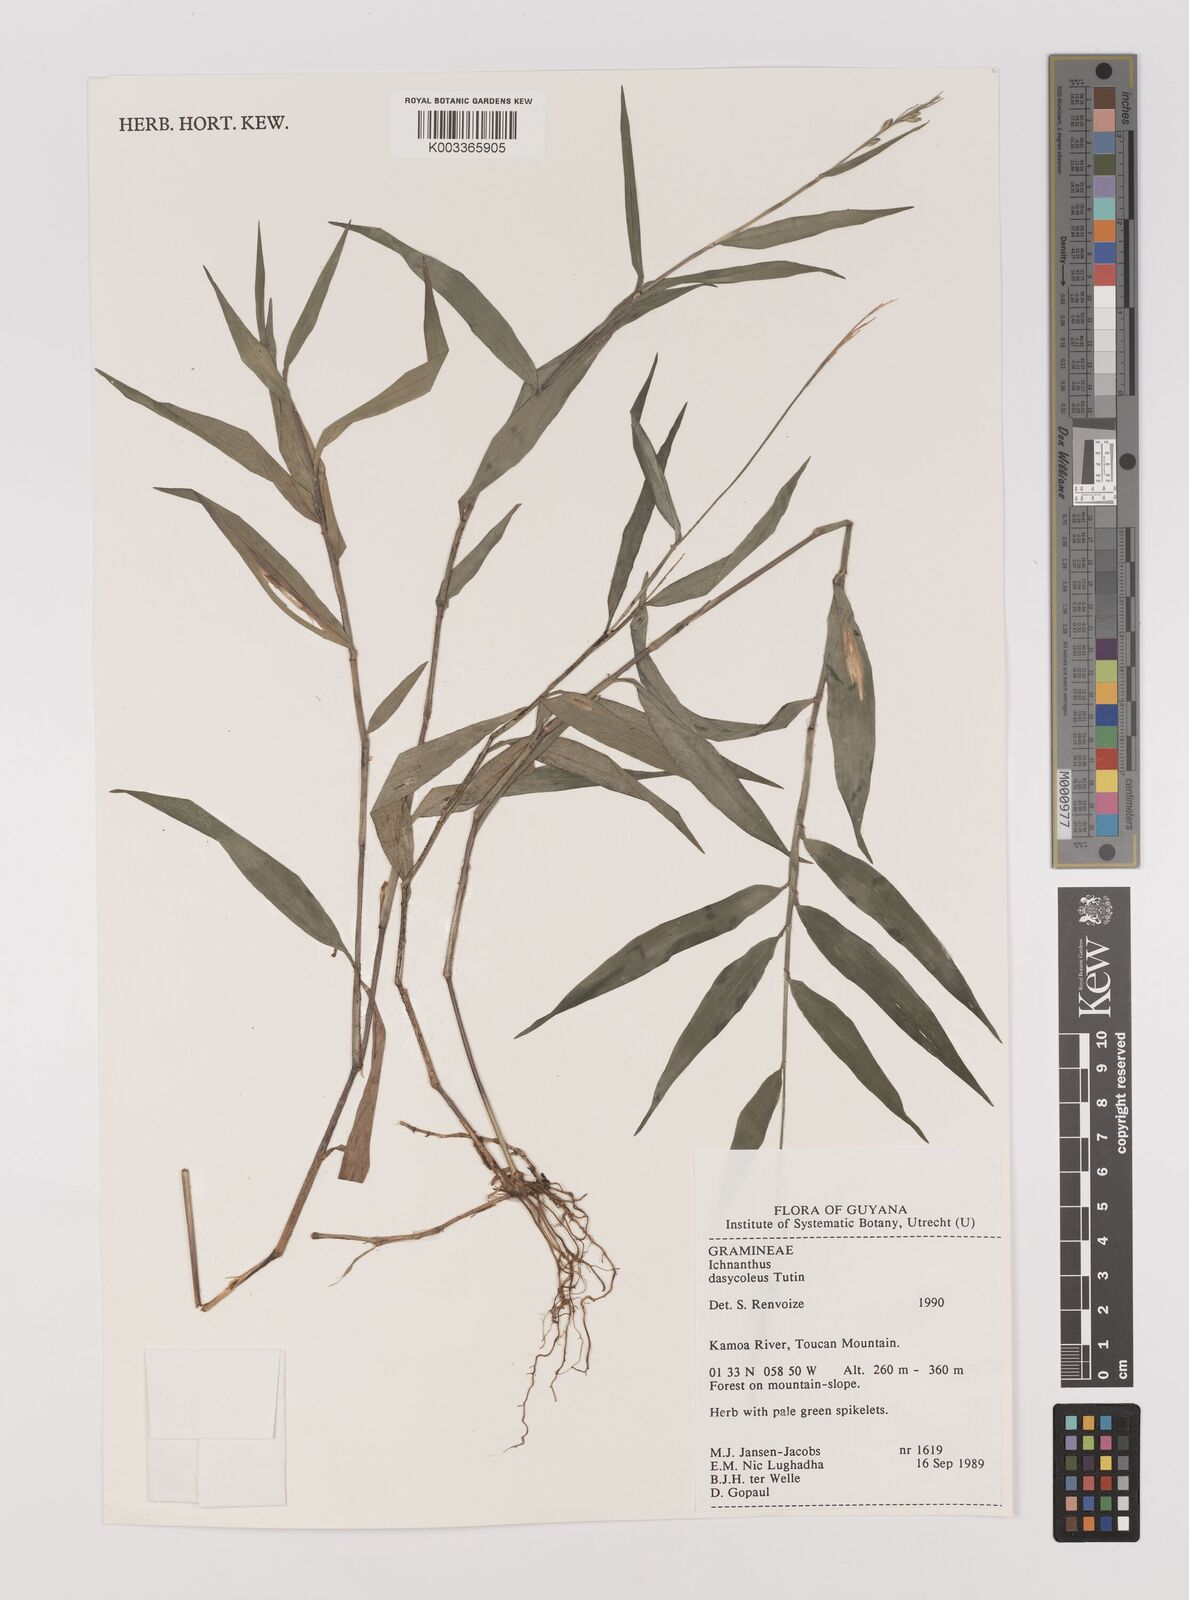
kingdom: Plantae
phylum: Tracheophyta
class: Liliopsida
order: Poales
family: Poaceae
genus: Ichnanthus
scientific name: Ichnanthus dasycoleus
